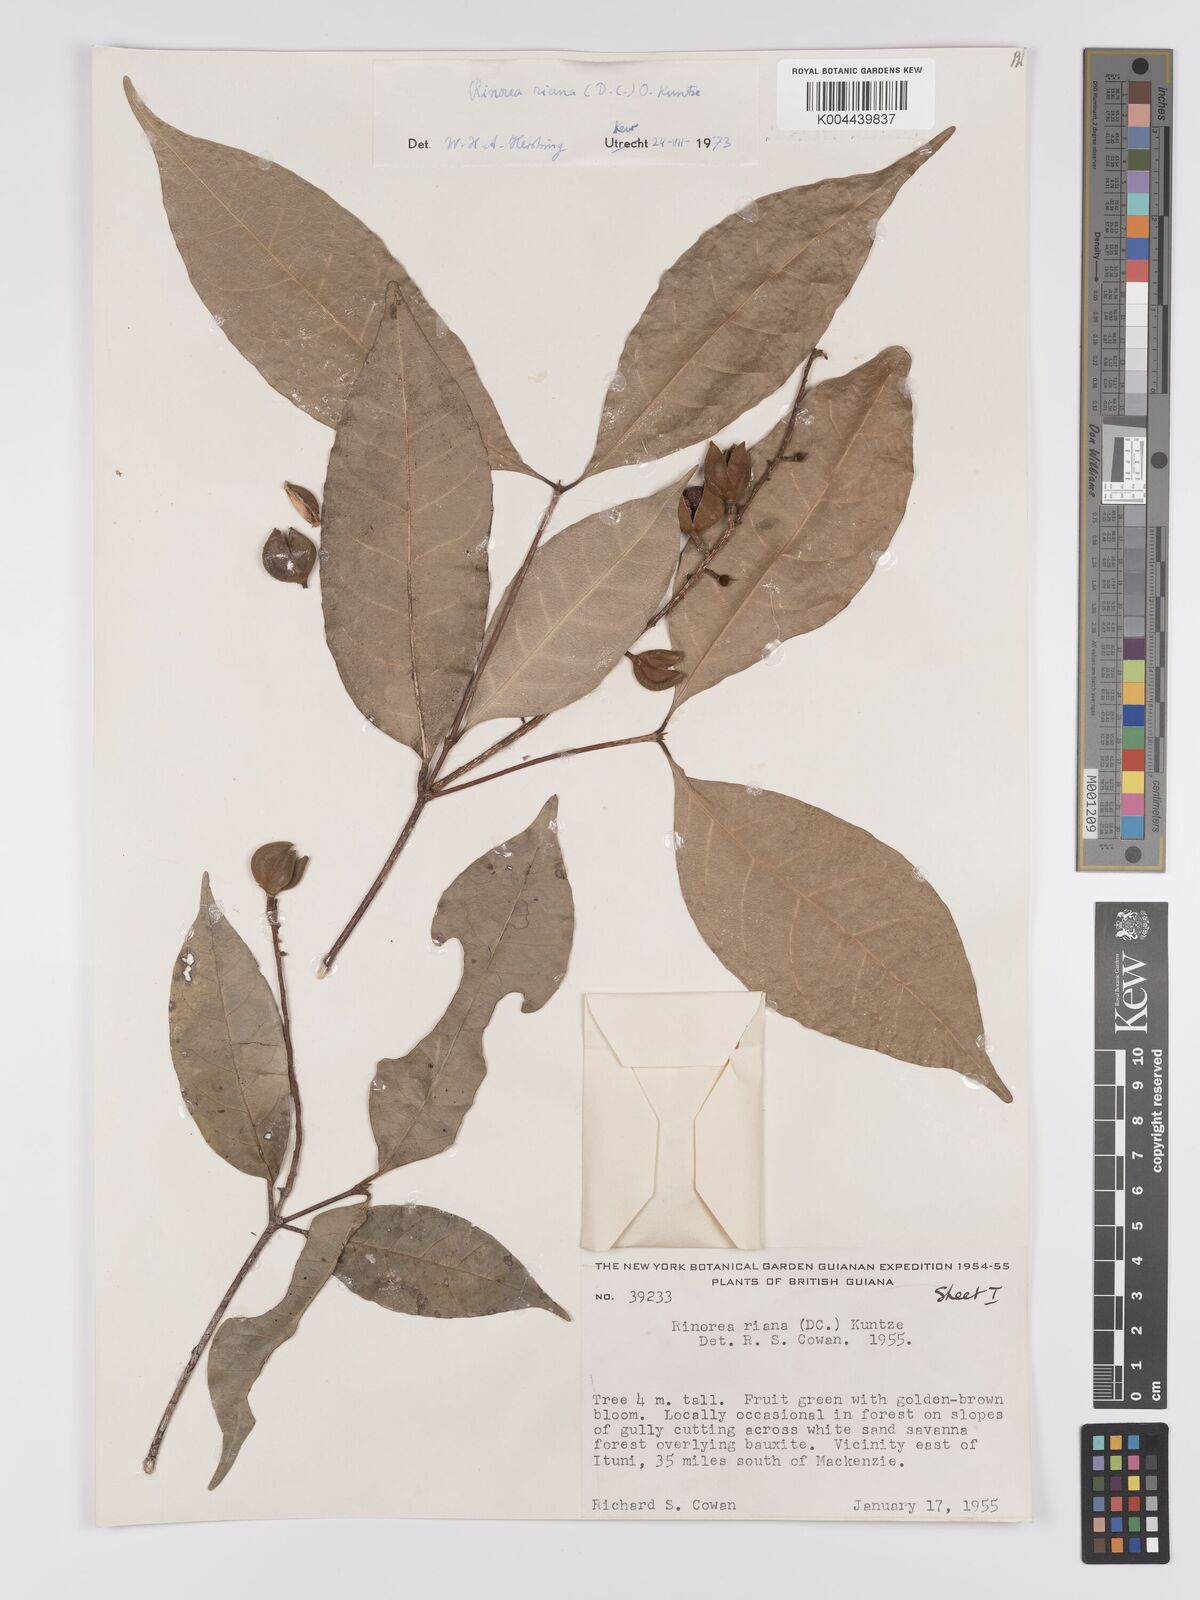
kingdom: Plantae
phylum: Tracheophyta
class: Magnoliopsida
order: Malpighiales
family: Violaceae
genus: Rinorea
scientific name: Rinorea riana
